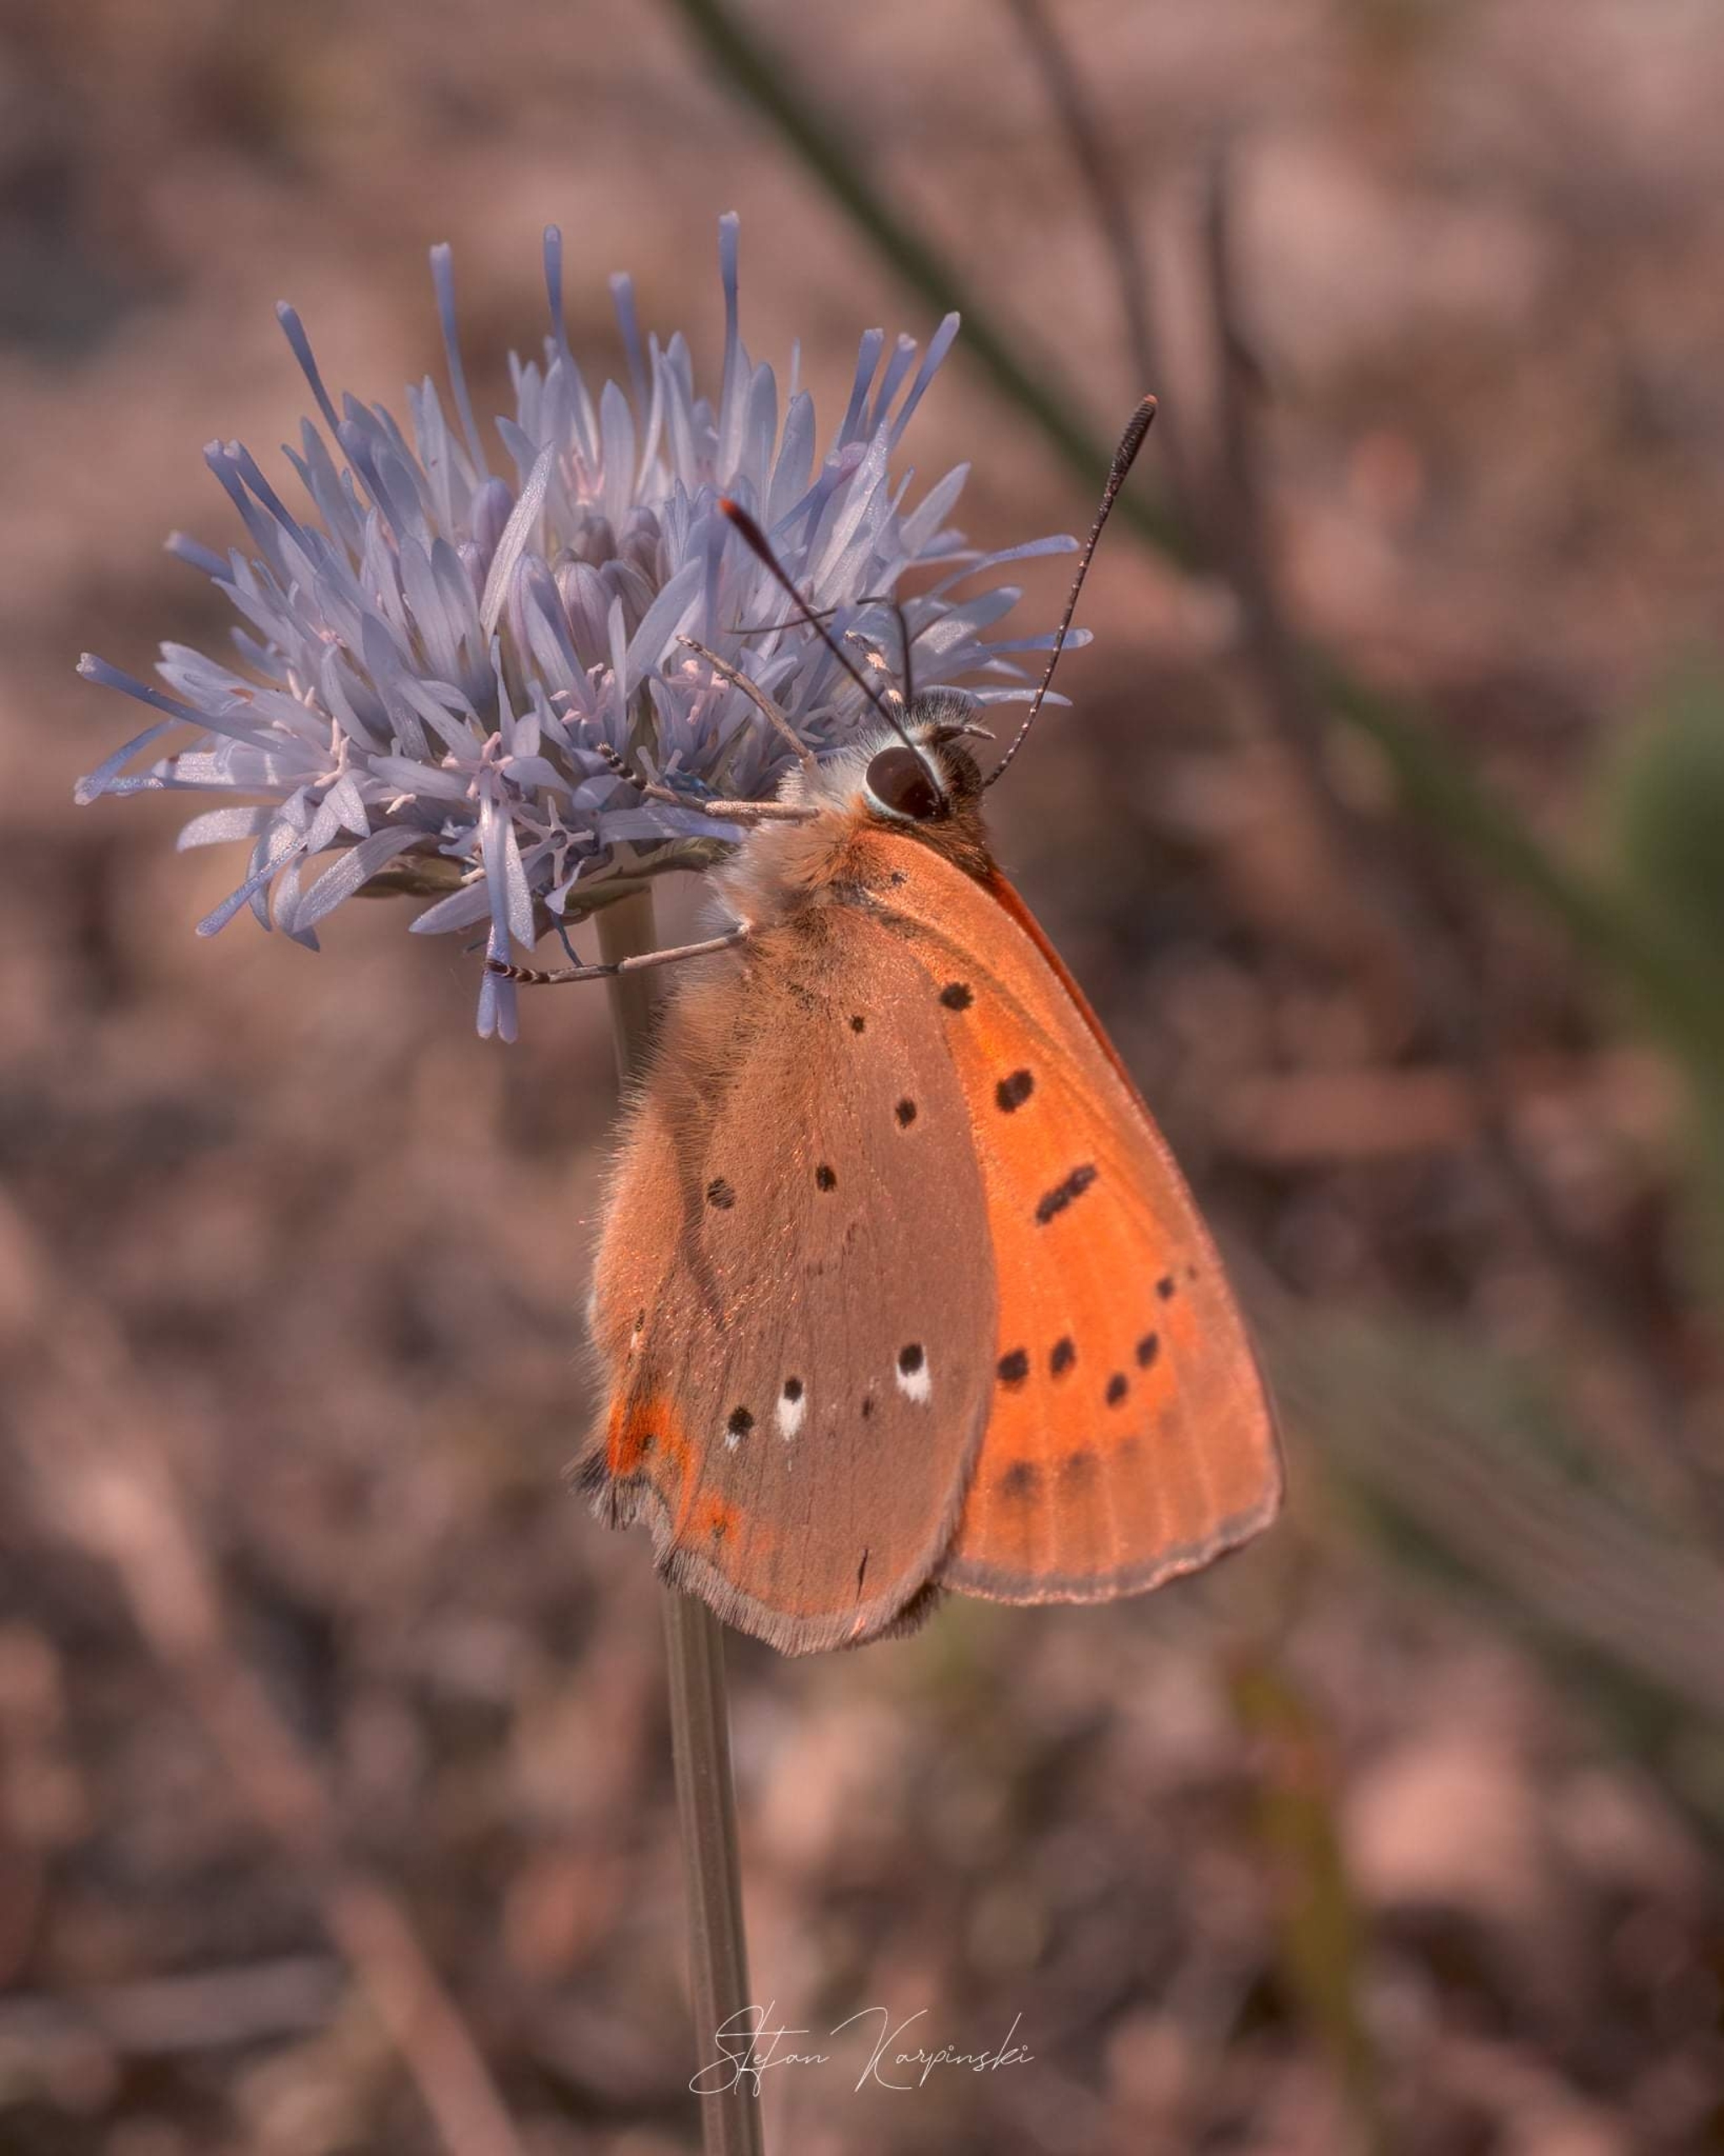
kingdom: Animalia
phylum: Arthropoda
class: Insecta
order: Lepidoptera
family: Lycaenidae
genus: Lycaena
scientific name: Lycaena virgaureae
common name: Dukatsommerfugl
